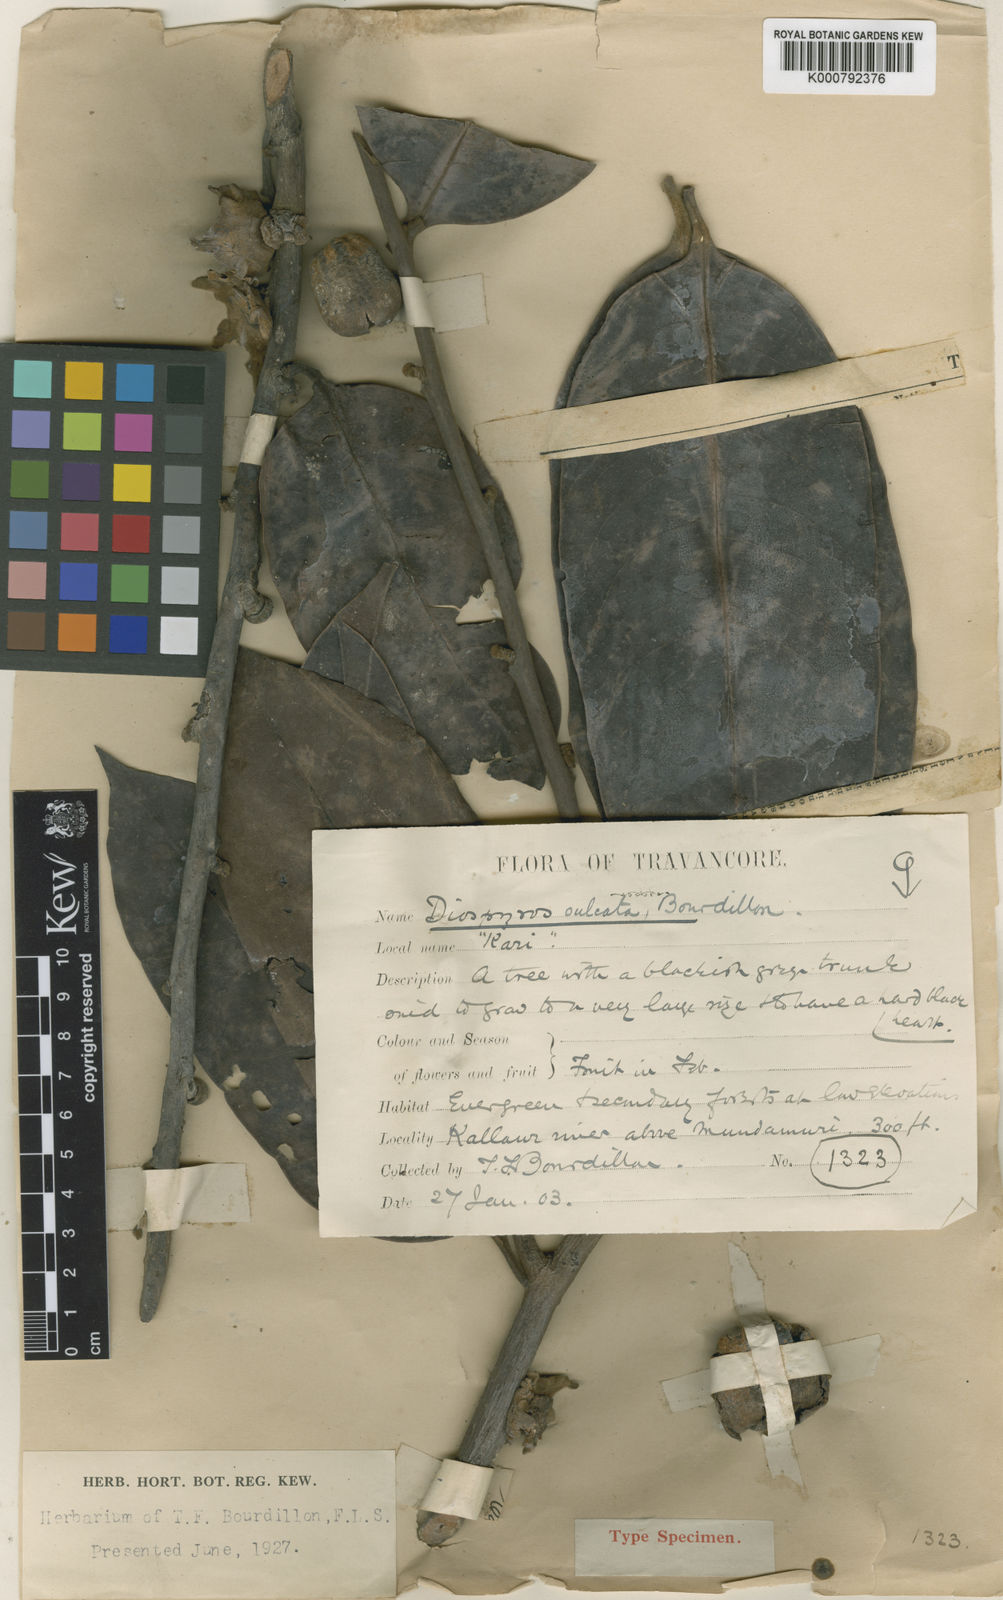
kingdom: Plantae
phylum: Tracheophyta
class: Magnoliopsida
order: Ericales
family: Ebenaceae
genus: Diospyros
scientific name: Diospyros sulcata
